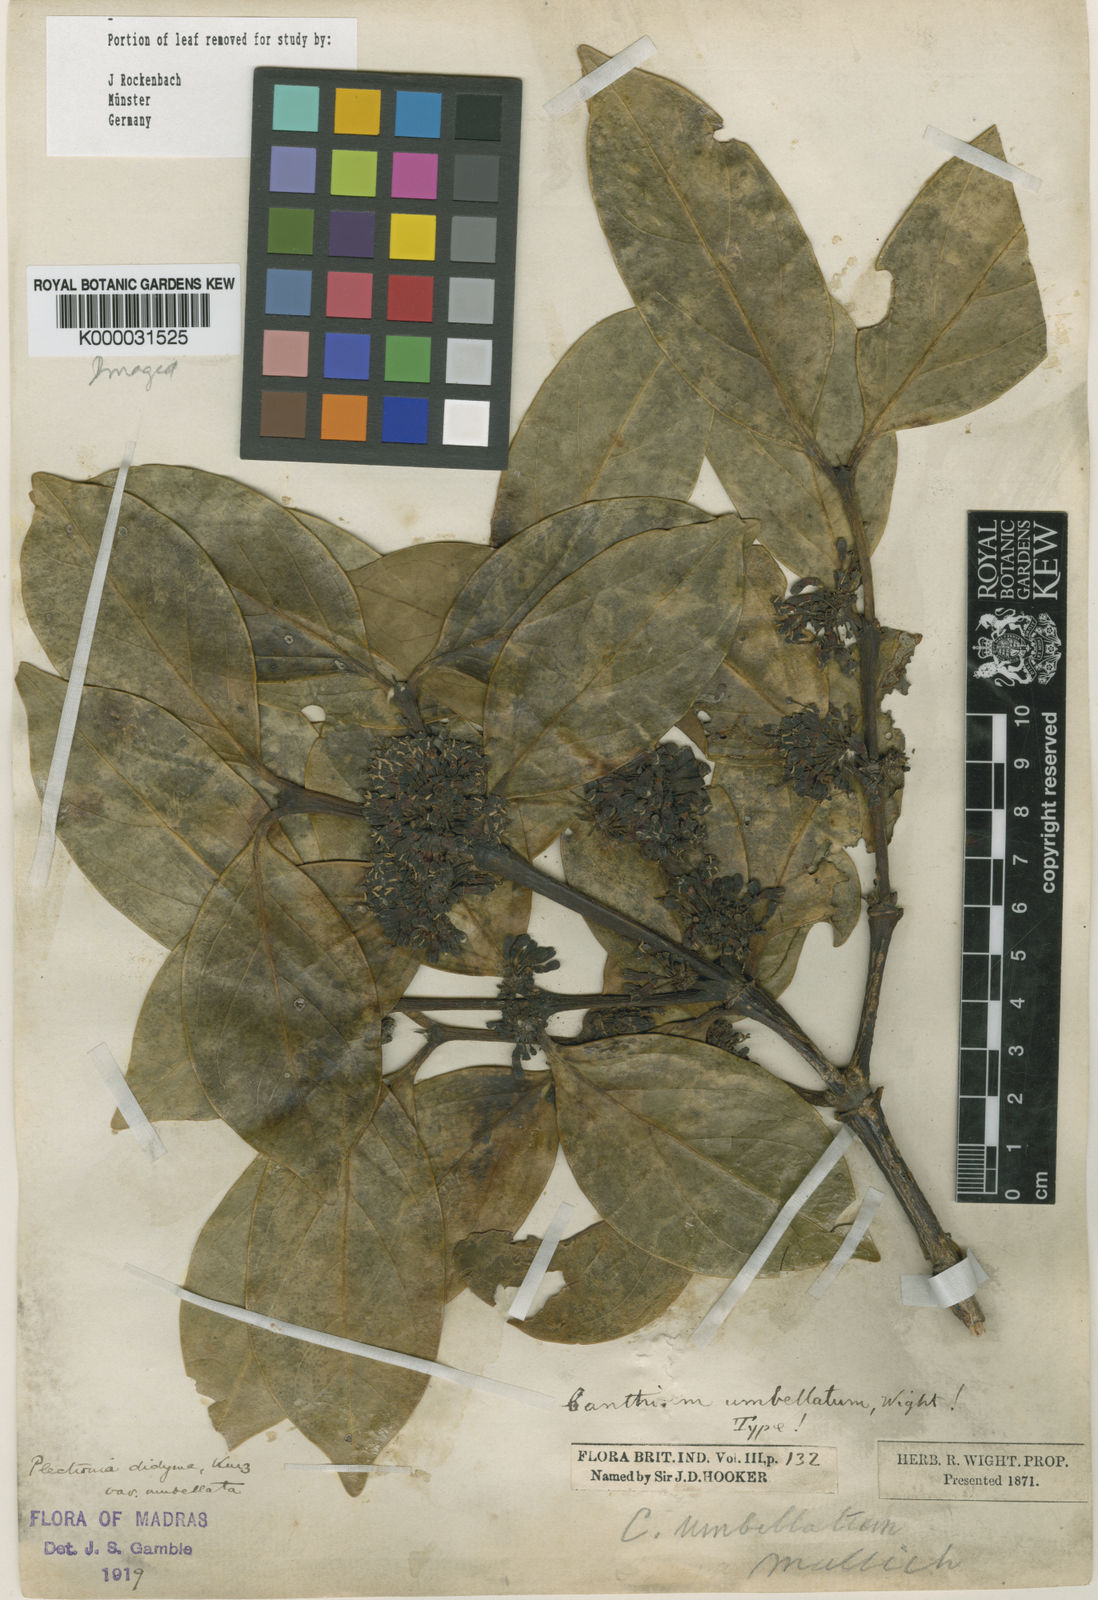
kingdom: Plantae
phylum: Tracheophyta
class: Magnoliopsida
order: Gentianales
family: Rubiaceae
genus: Psydrax
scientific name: Psydrax umbellatus
